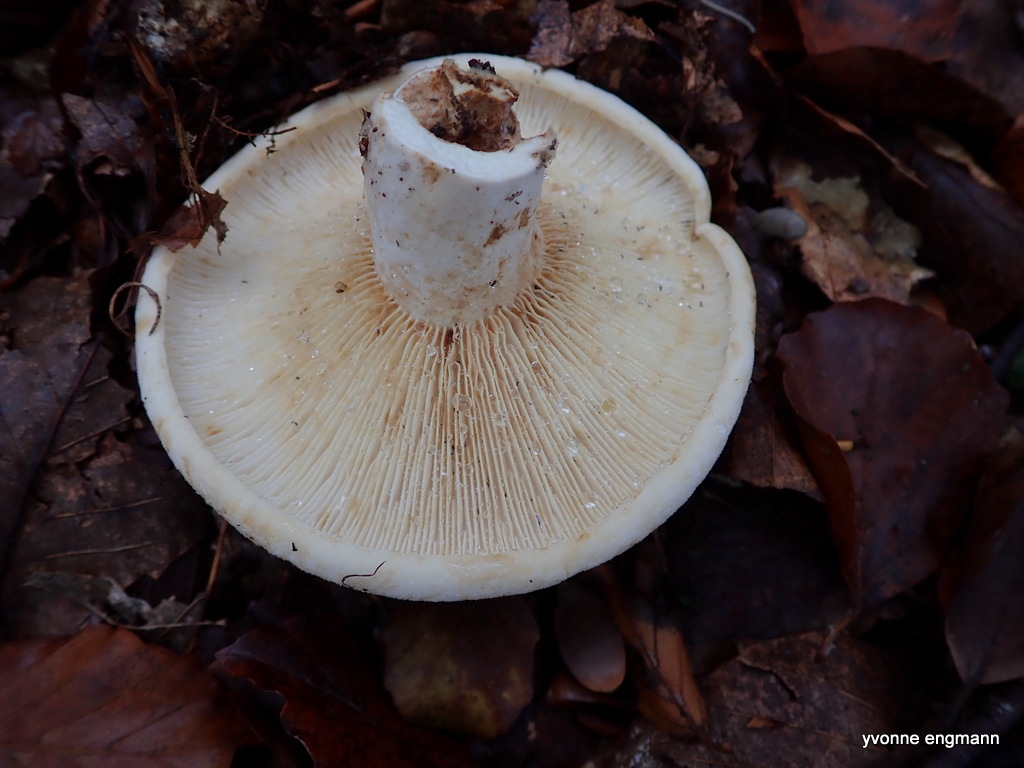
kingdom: Fungi
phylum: Basidiomycota
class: Agaricomycetes
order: Russulales
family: Russulaceae
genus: Lactifluus
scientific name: Lactifluus vellereus
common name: hvidfiltet mælkehat
